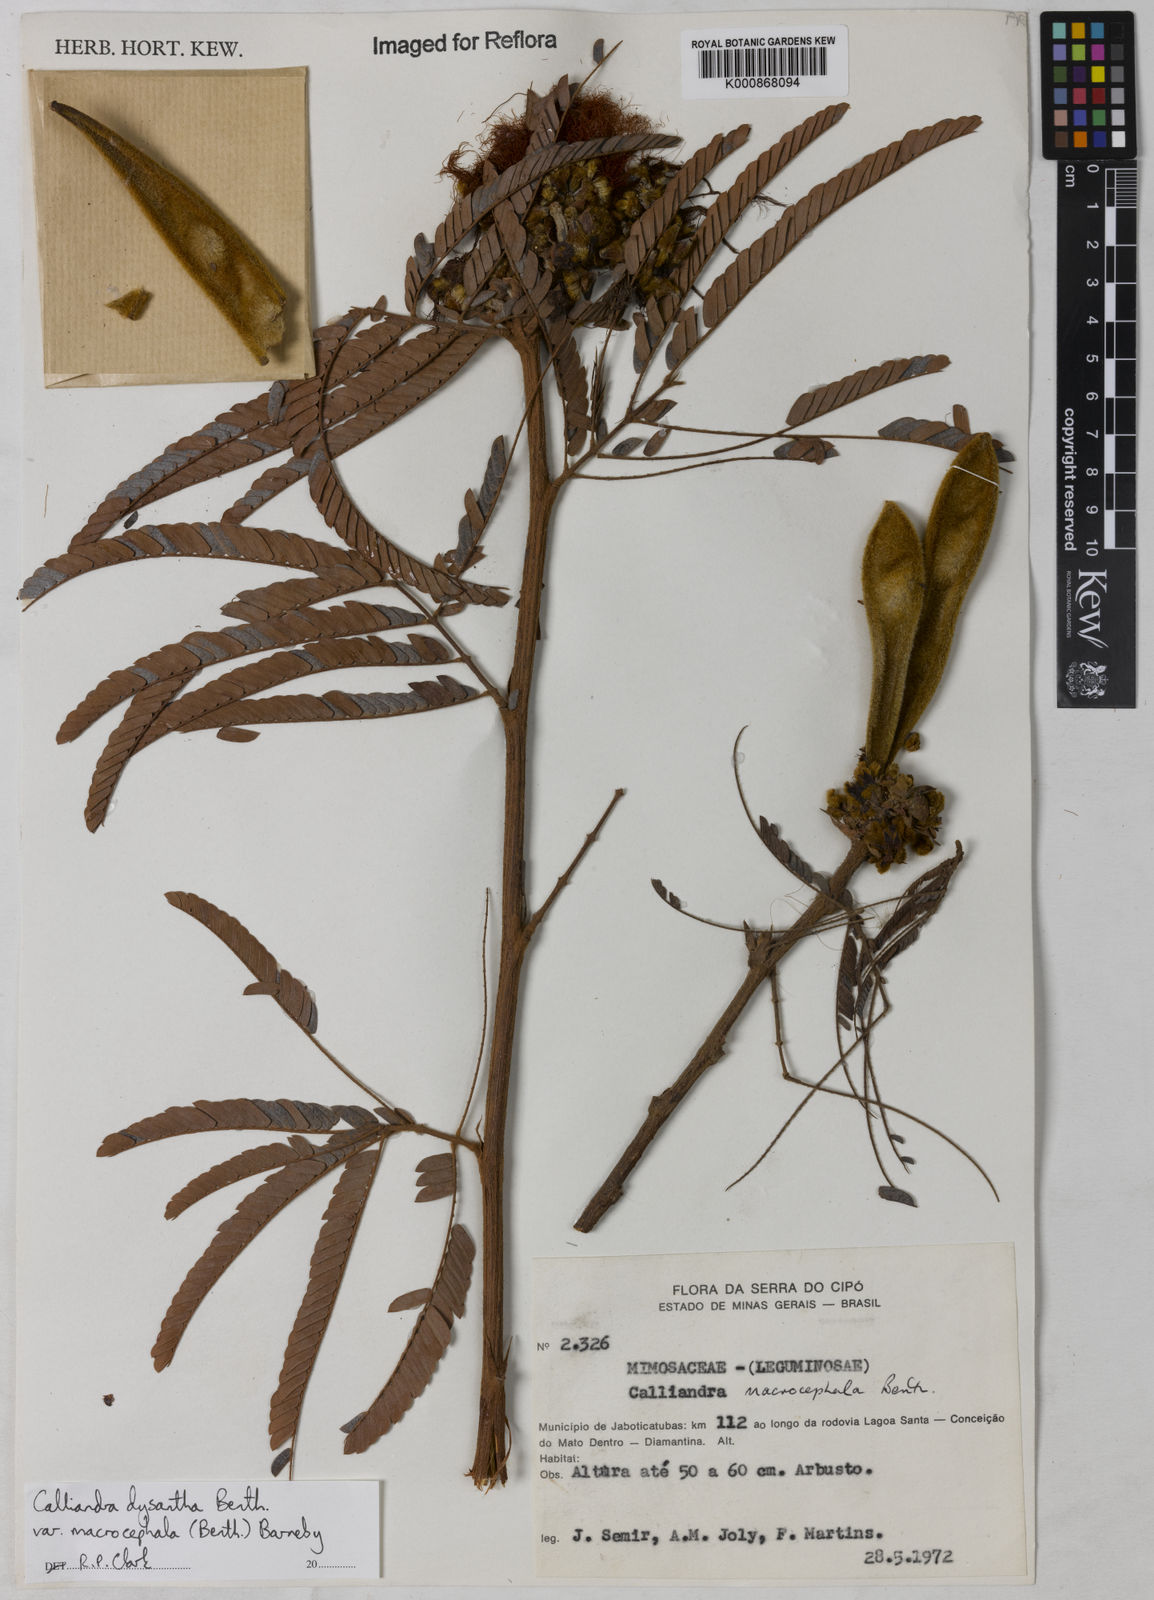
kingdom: Plantae
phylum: Tracheophyta
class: Magnoliopsida
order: Fabales
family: Fabaceae
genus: Calliandra
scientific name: Calliandra dysantha
